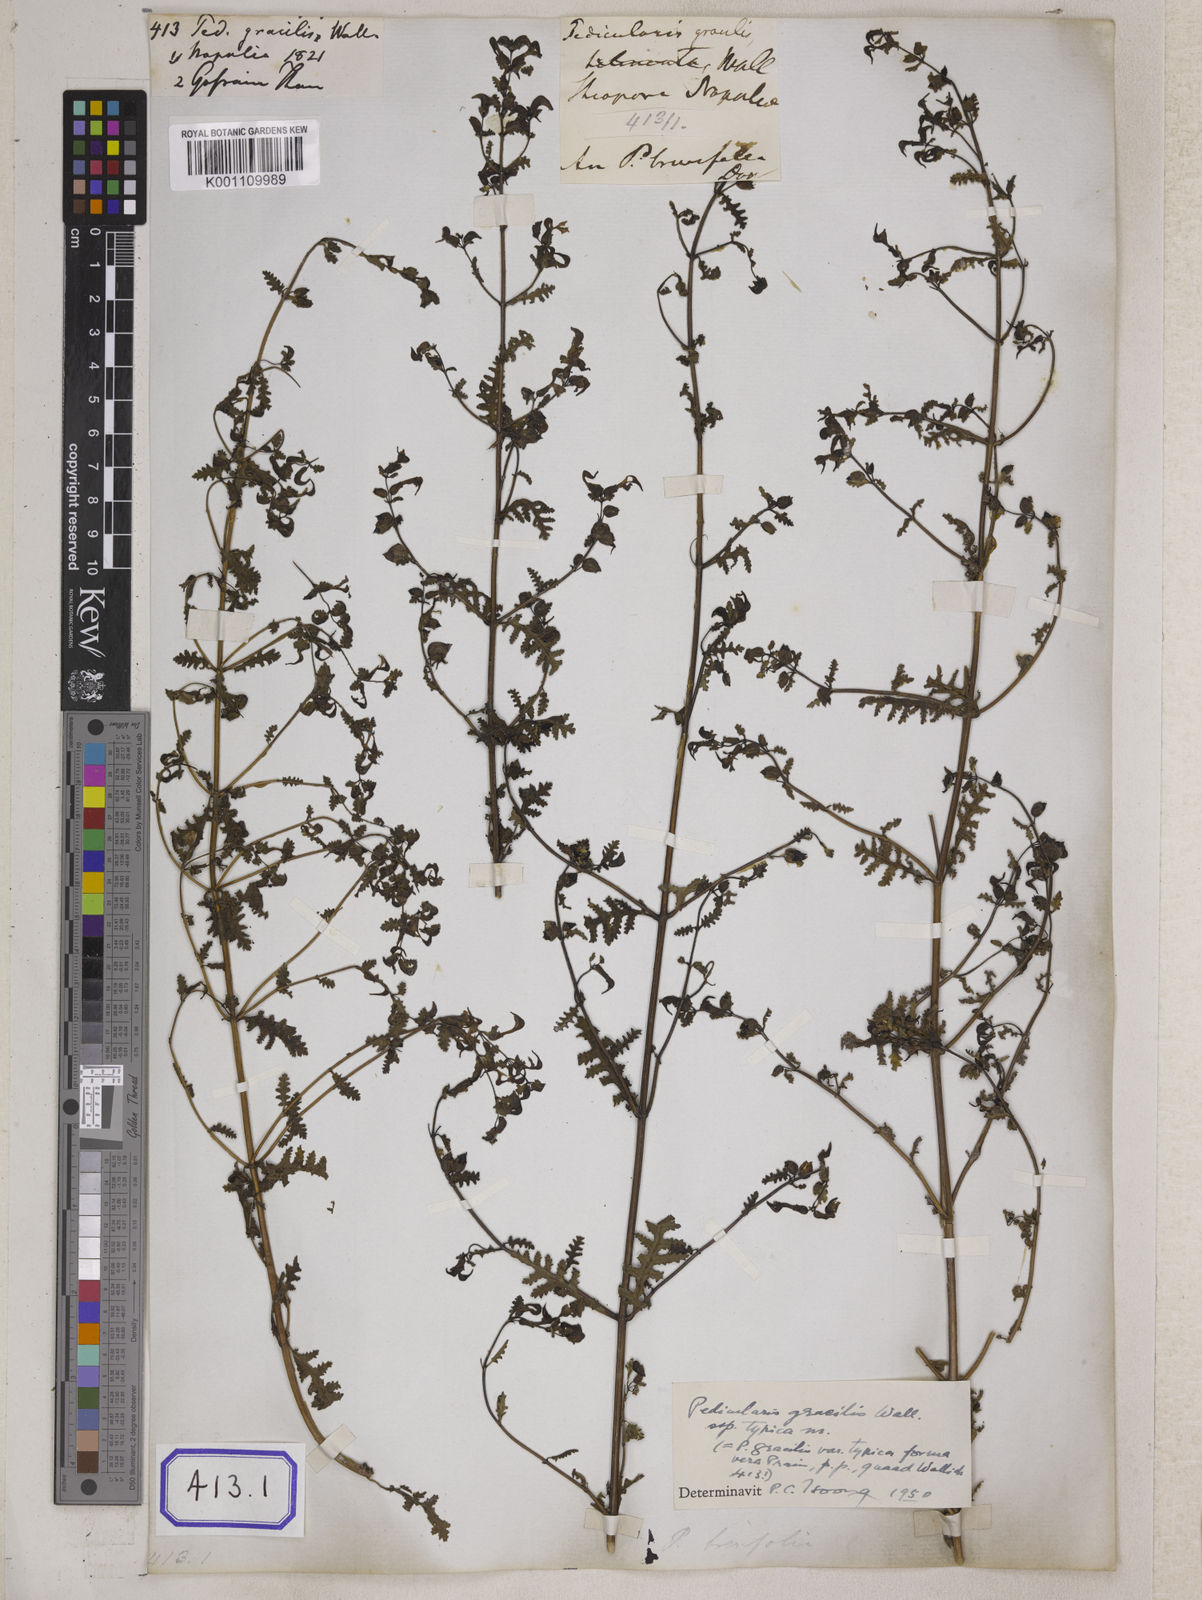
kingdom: Plantae
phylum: Tracheophyta
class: Magnoliopsida
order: Lamiales
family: Orobanchaceae
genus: Pedicularis
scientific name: Pedicularis
